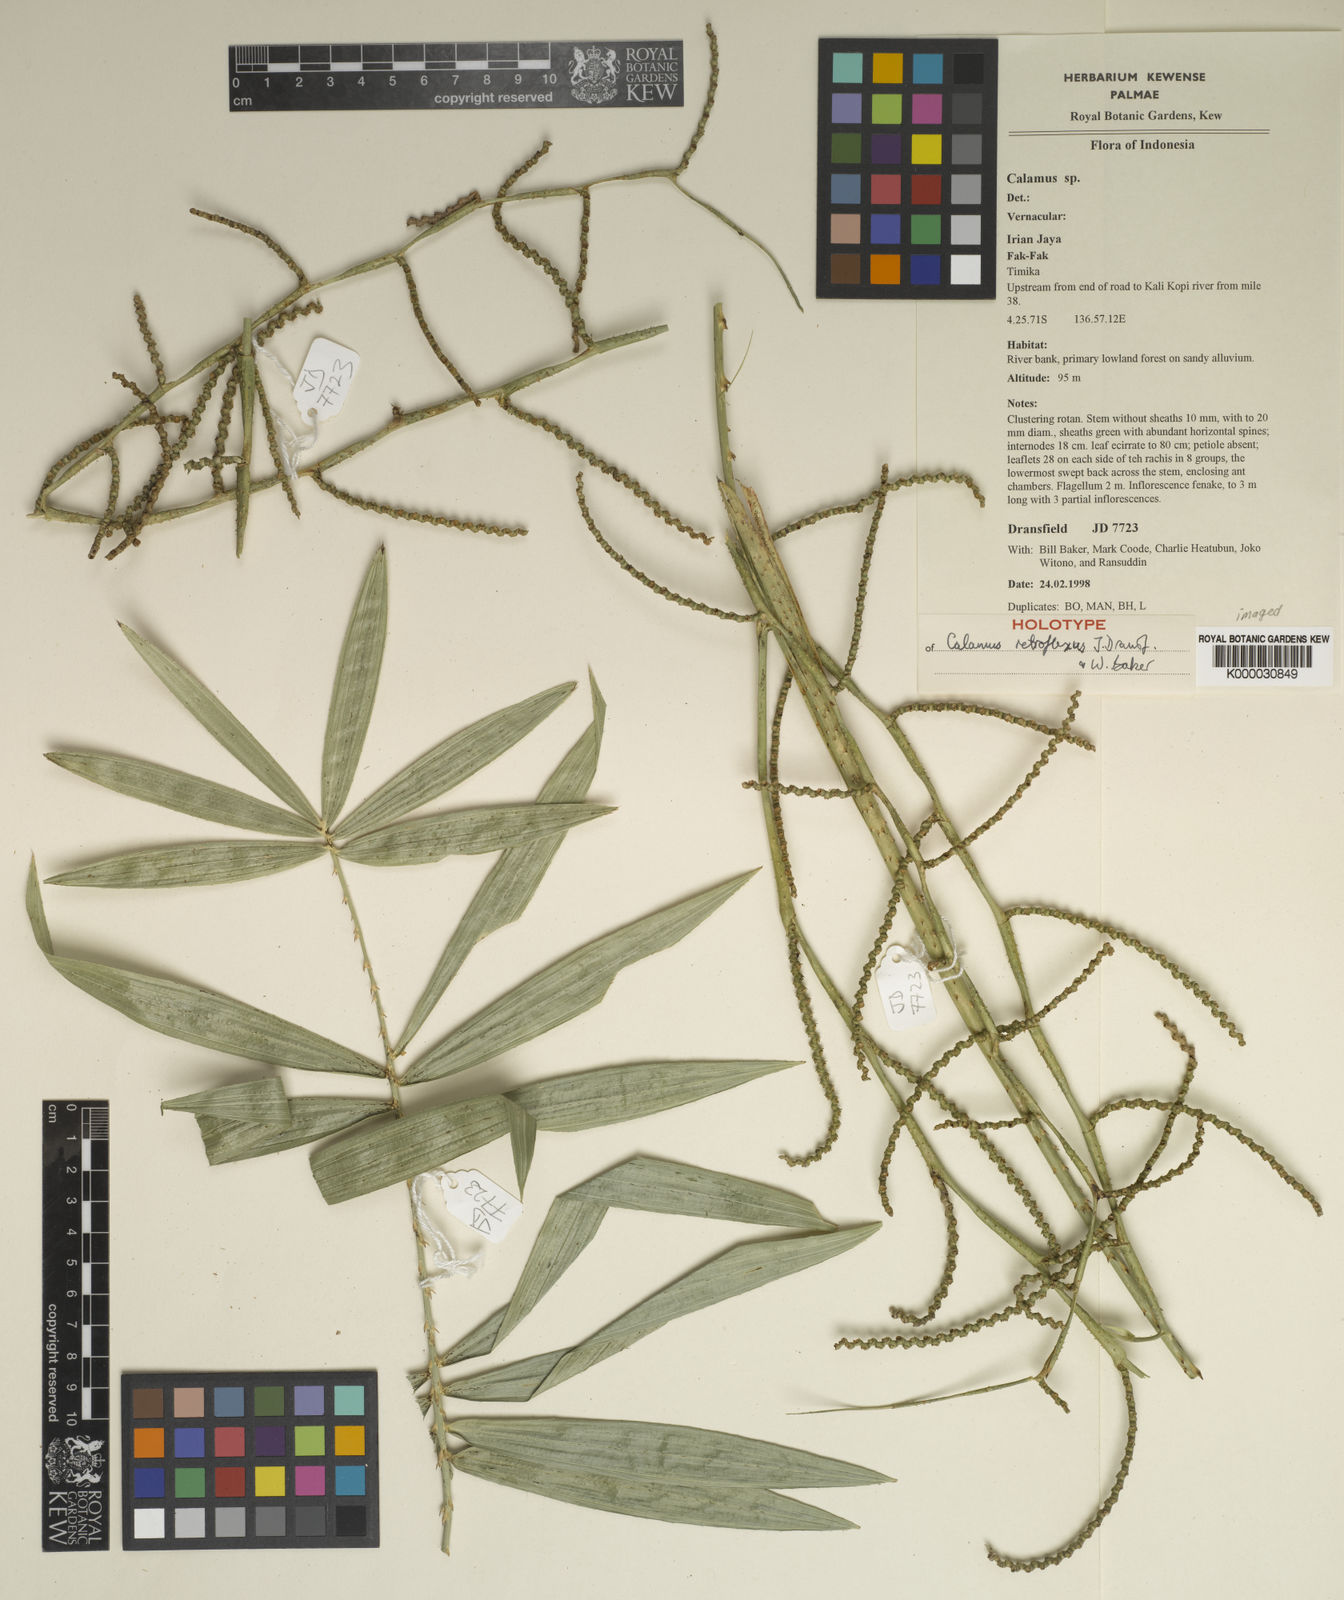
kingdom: Plantae
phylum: Tracheophyta
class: Liliopsida
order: Arecales
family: Arecaceae
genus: Calamus
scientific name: Calamus retroflexus
